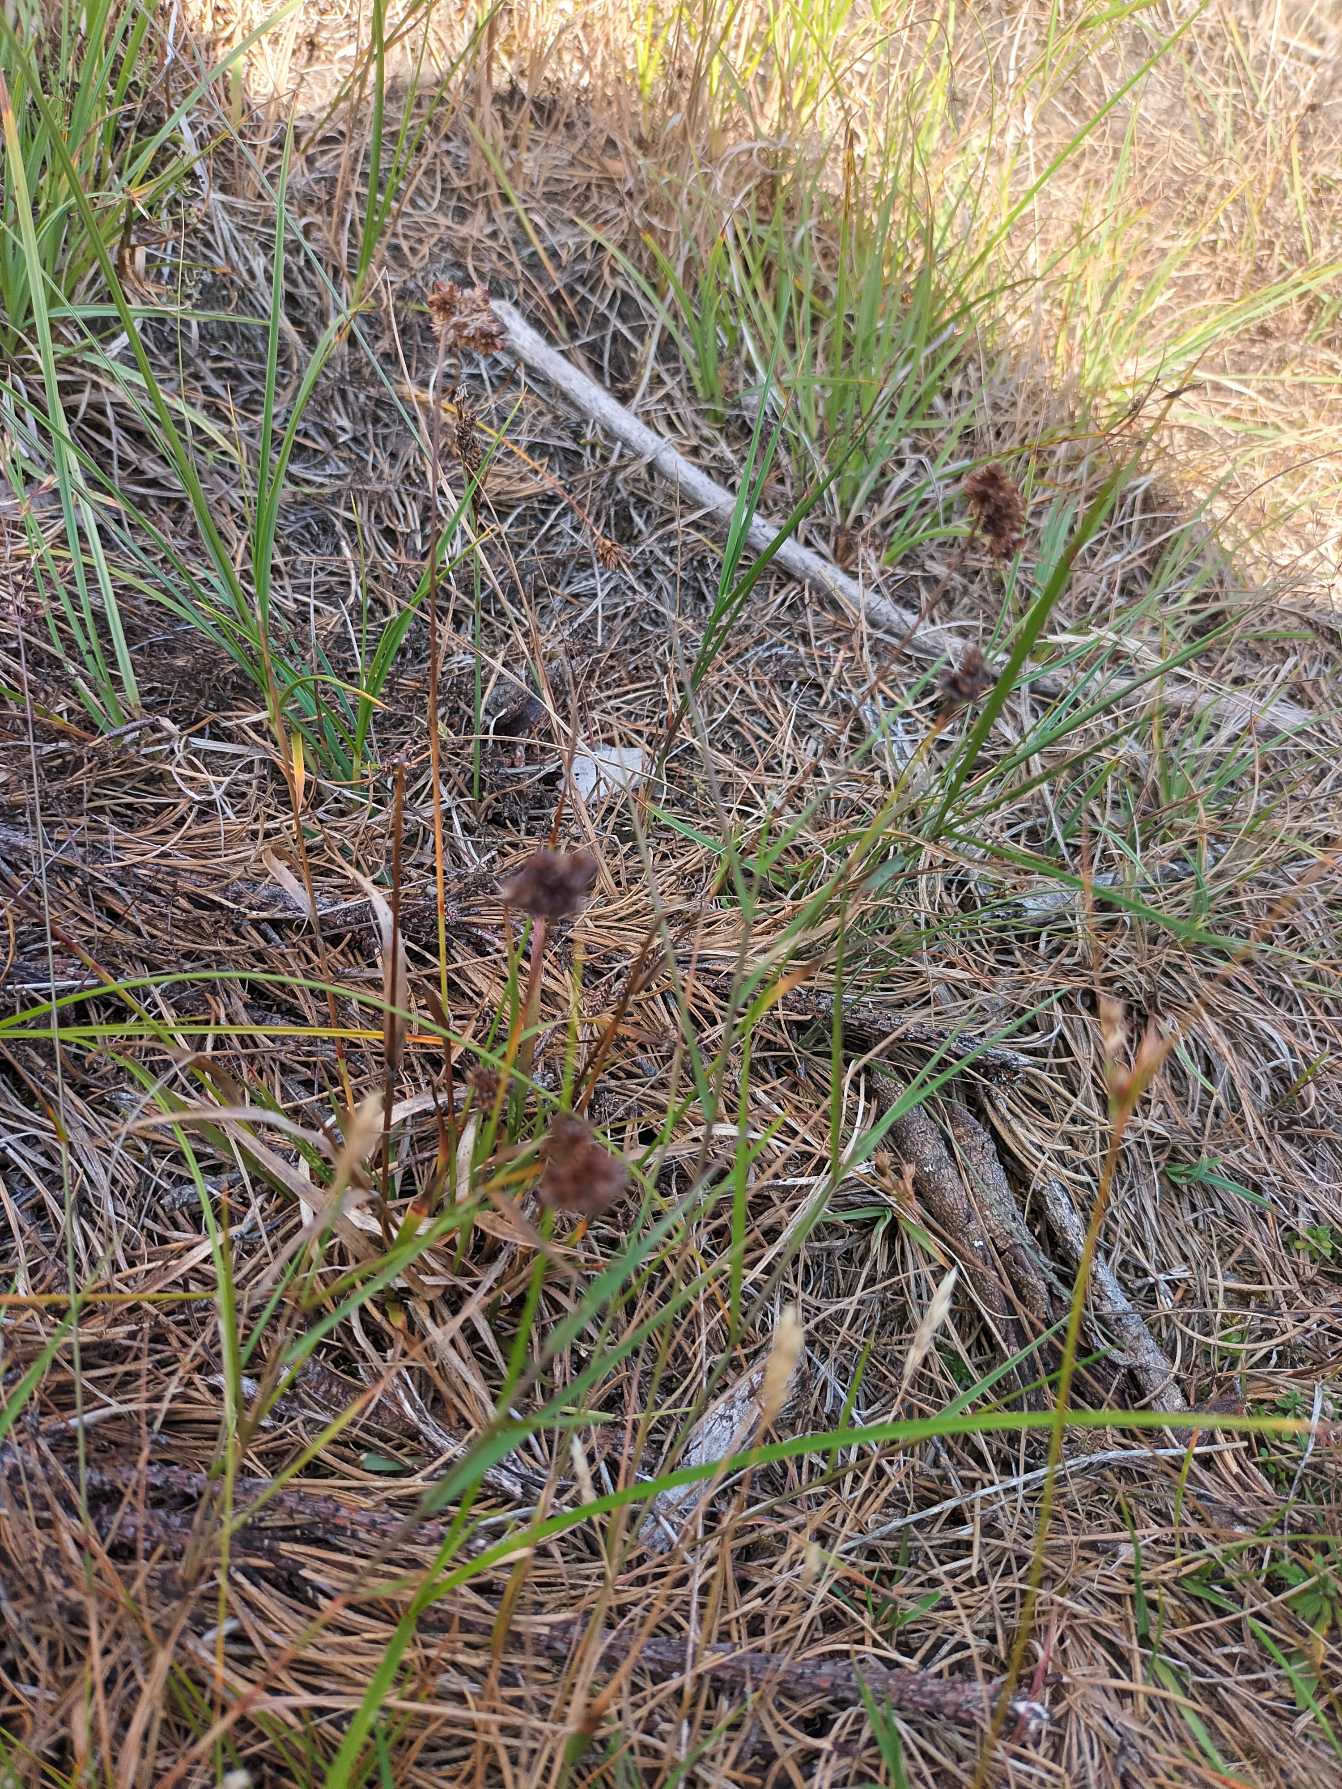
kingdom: Plantae
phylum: Tracheophyta
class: Liliopsida
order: Poales
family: Juncaceae
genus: Luzula
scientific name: Luzula congesta
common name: Hoved-frytle
